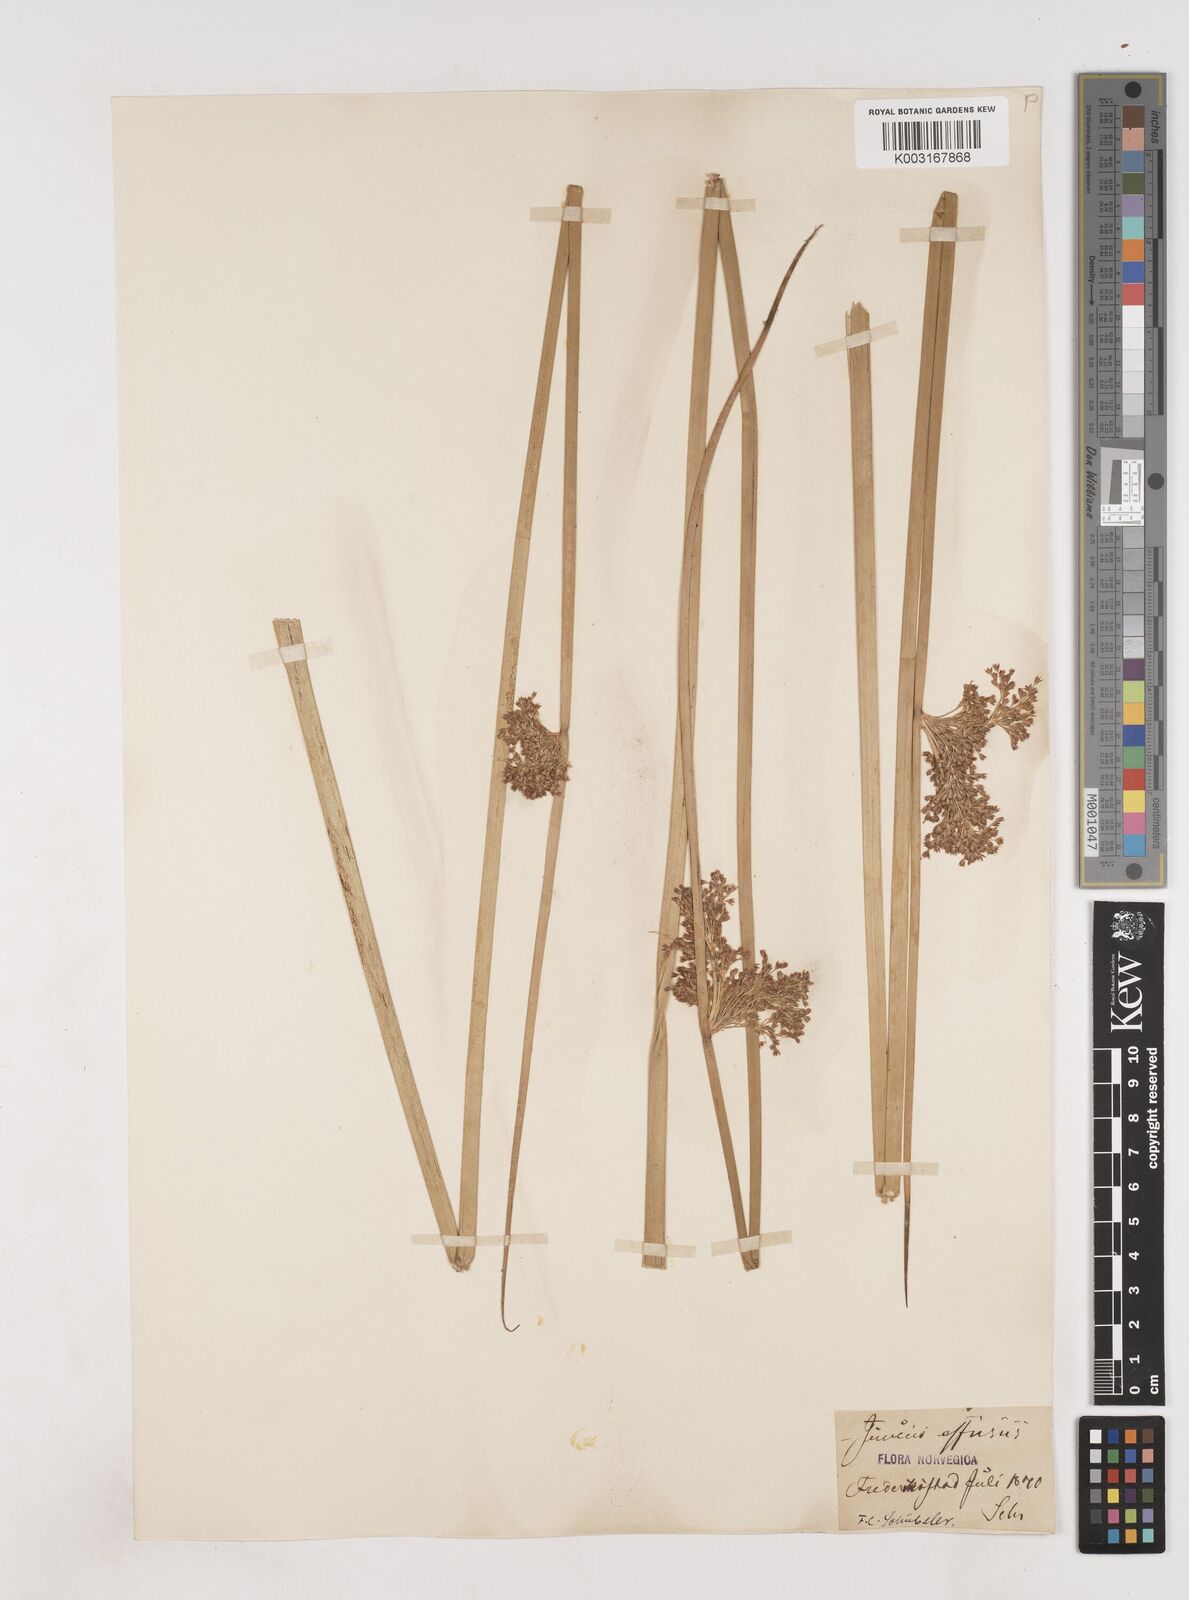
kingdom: Plantae
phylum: Tracheophyta
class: Liliopsida
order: Poales
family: Juncaceae
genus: Juncus
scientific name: Juncus effusus
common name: Soft rush
